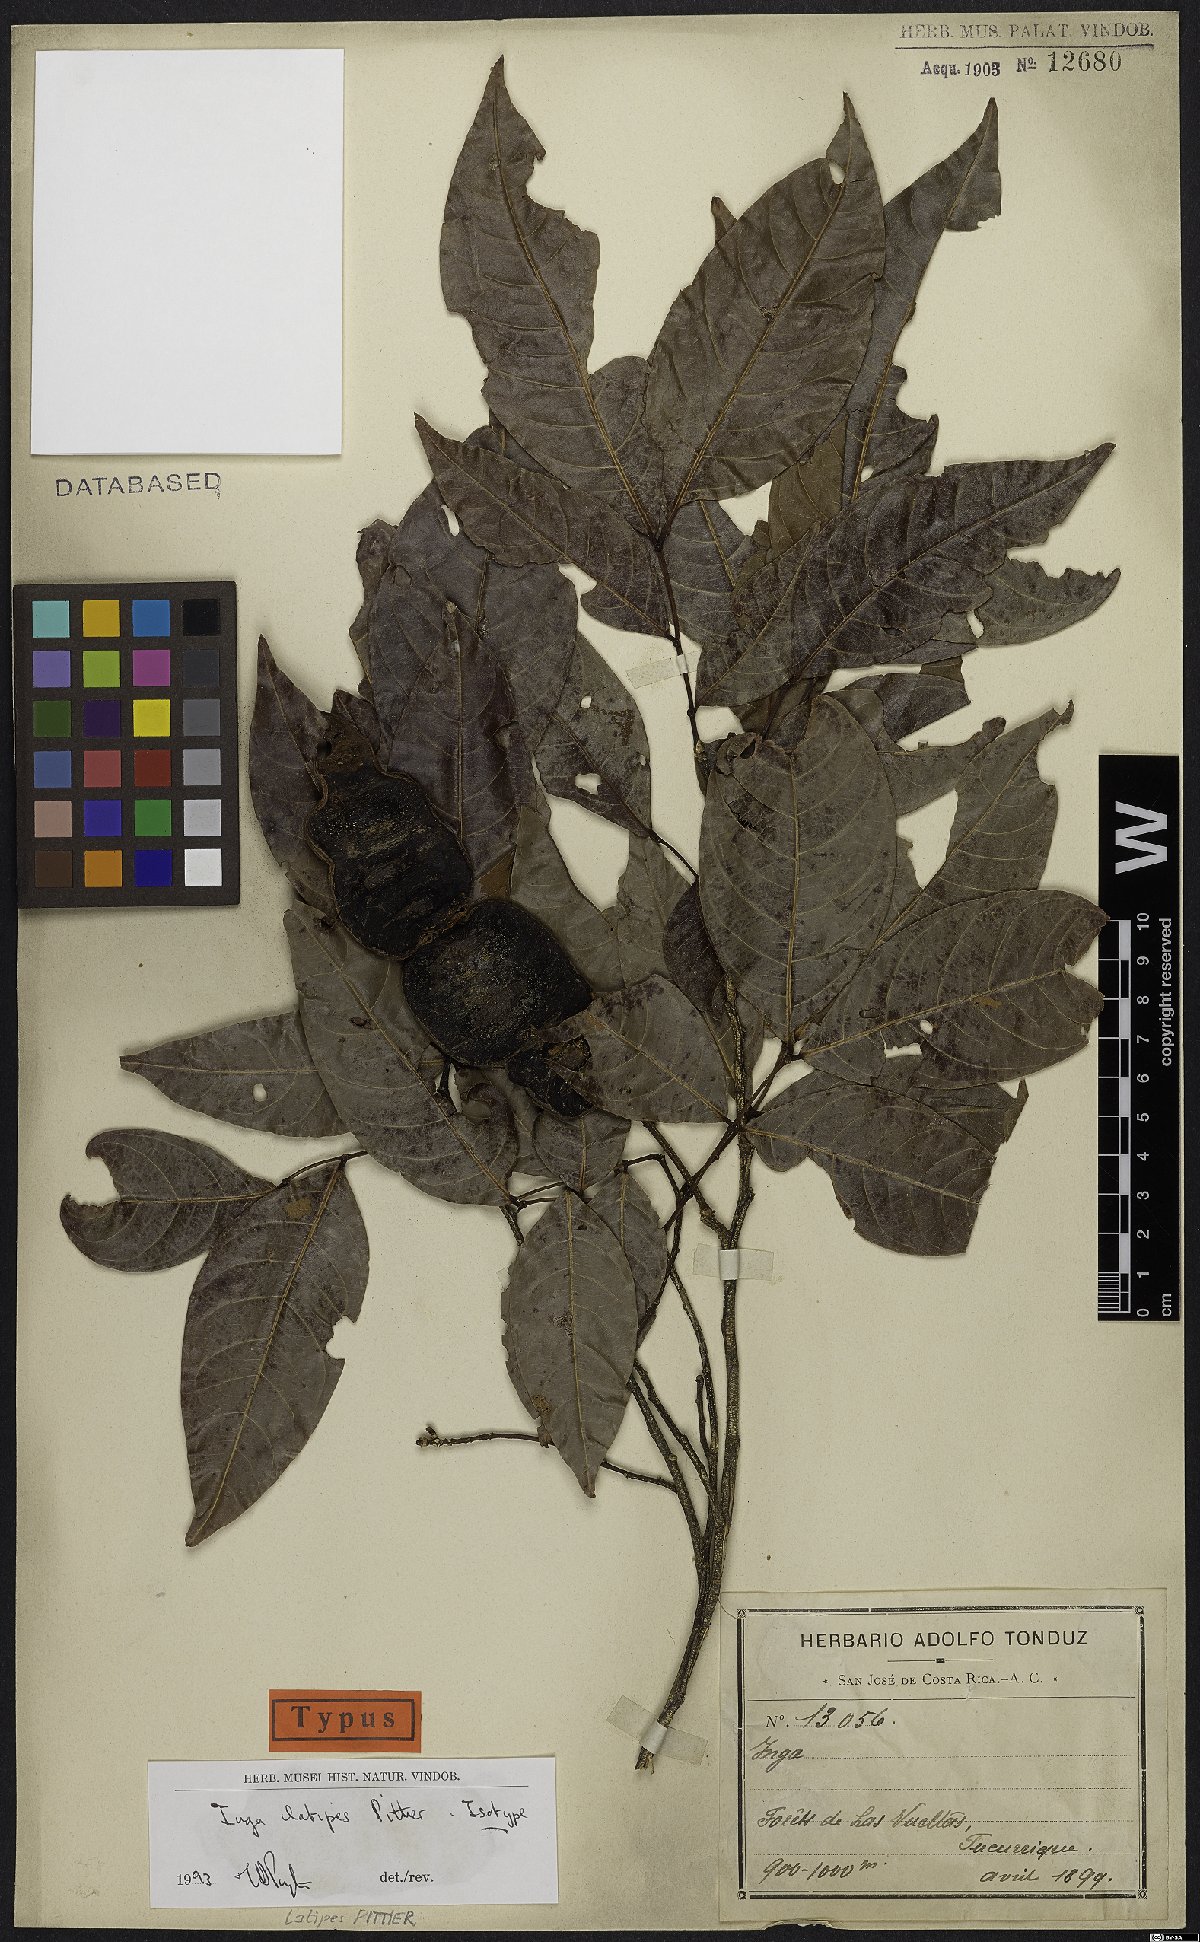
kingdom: Plantae
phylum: Tracheophyta
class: Magnoliopsida
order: Fabales
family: Fabaceae
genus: Inga
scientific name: Inga latipes
